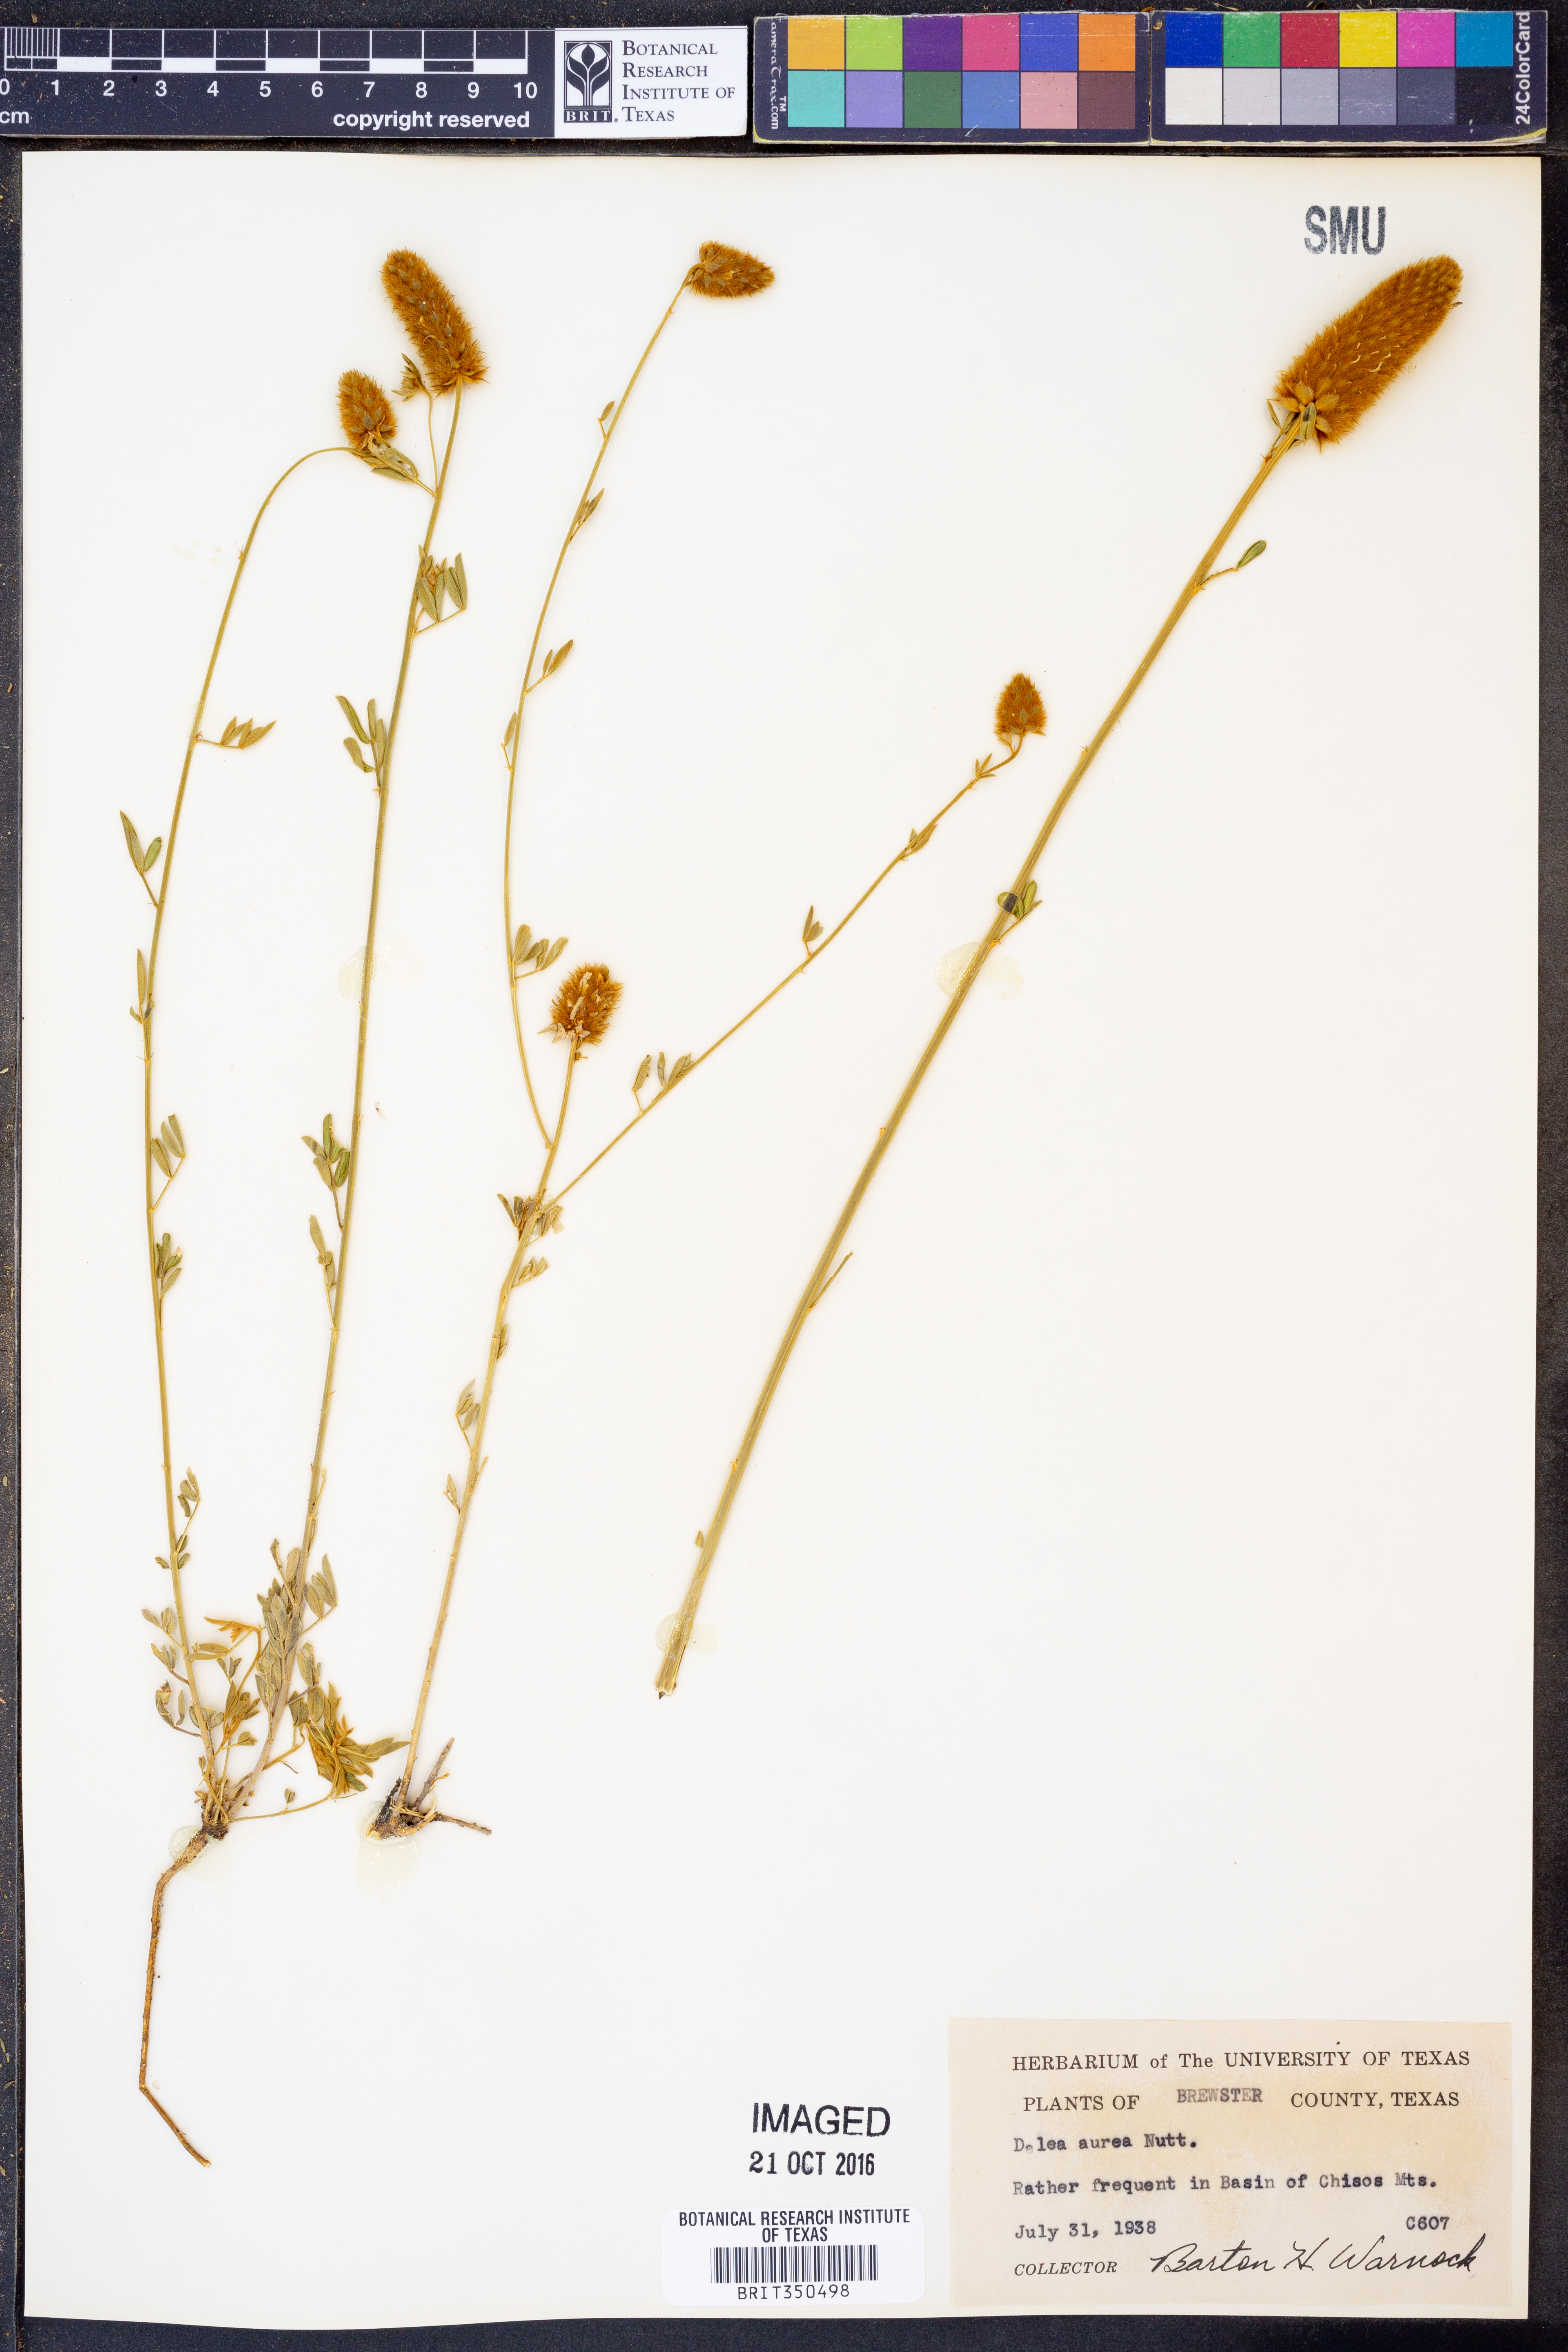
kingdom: Plantae
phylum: Tracheophyta
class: Magnoliopsida
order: Fabales
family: Fabaceae
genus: Dalea
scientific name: Dalea aurea
